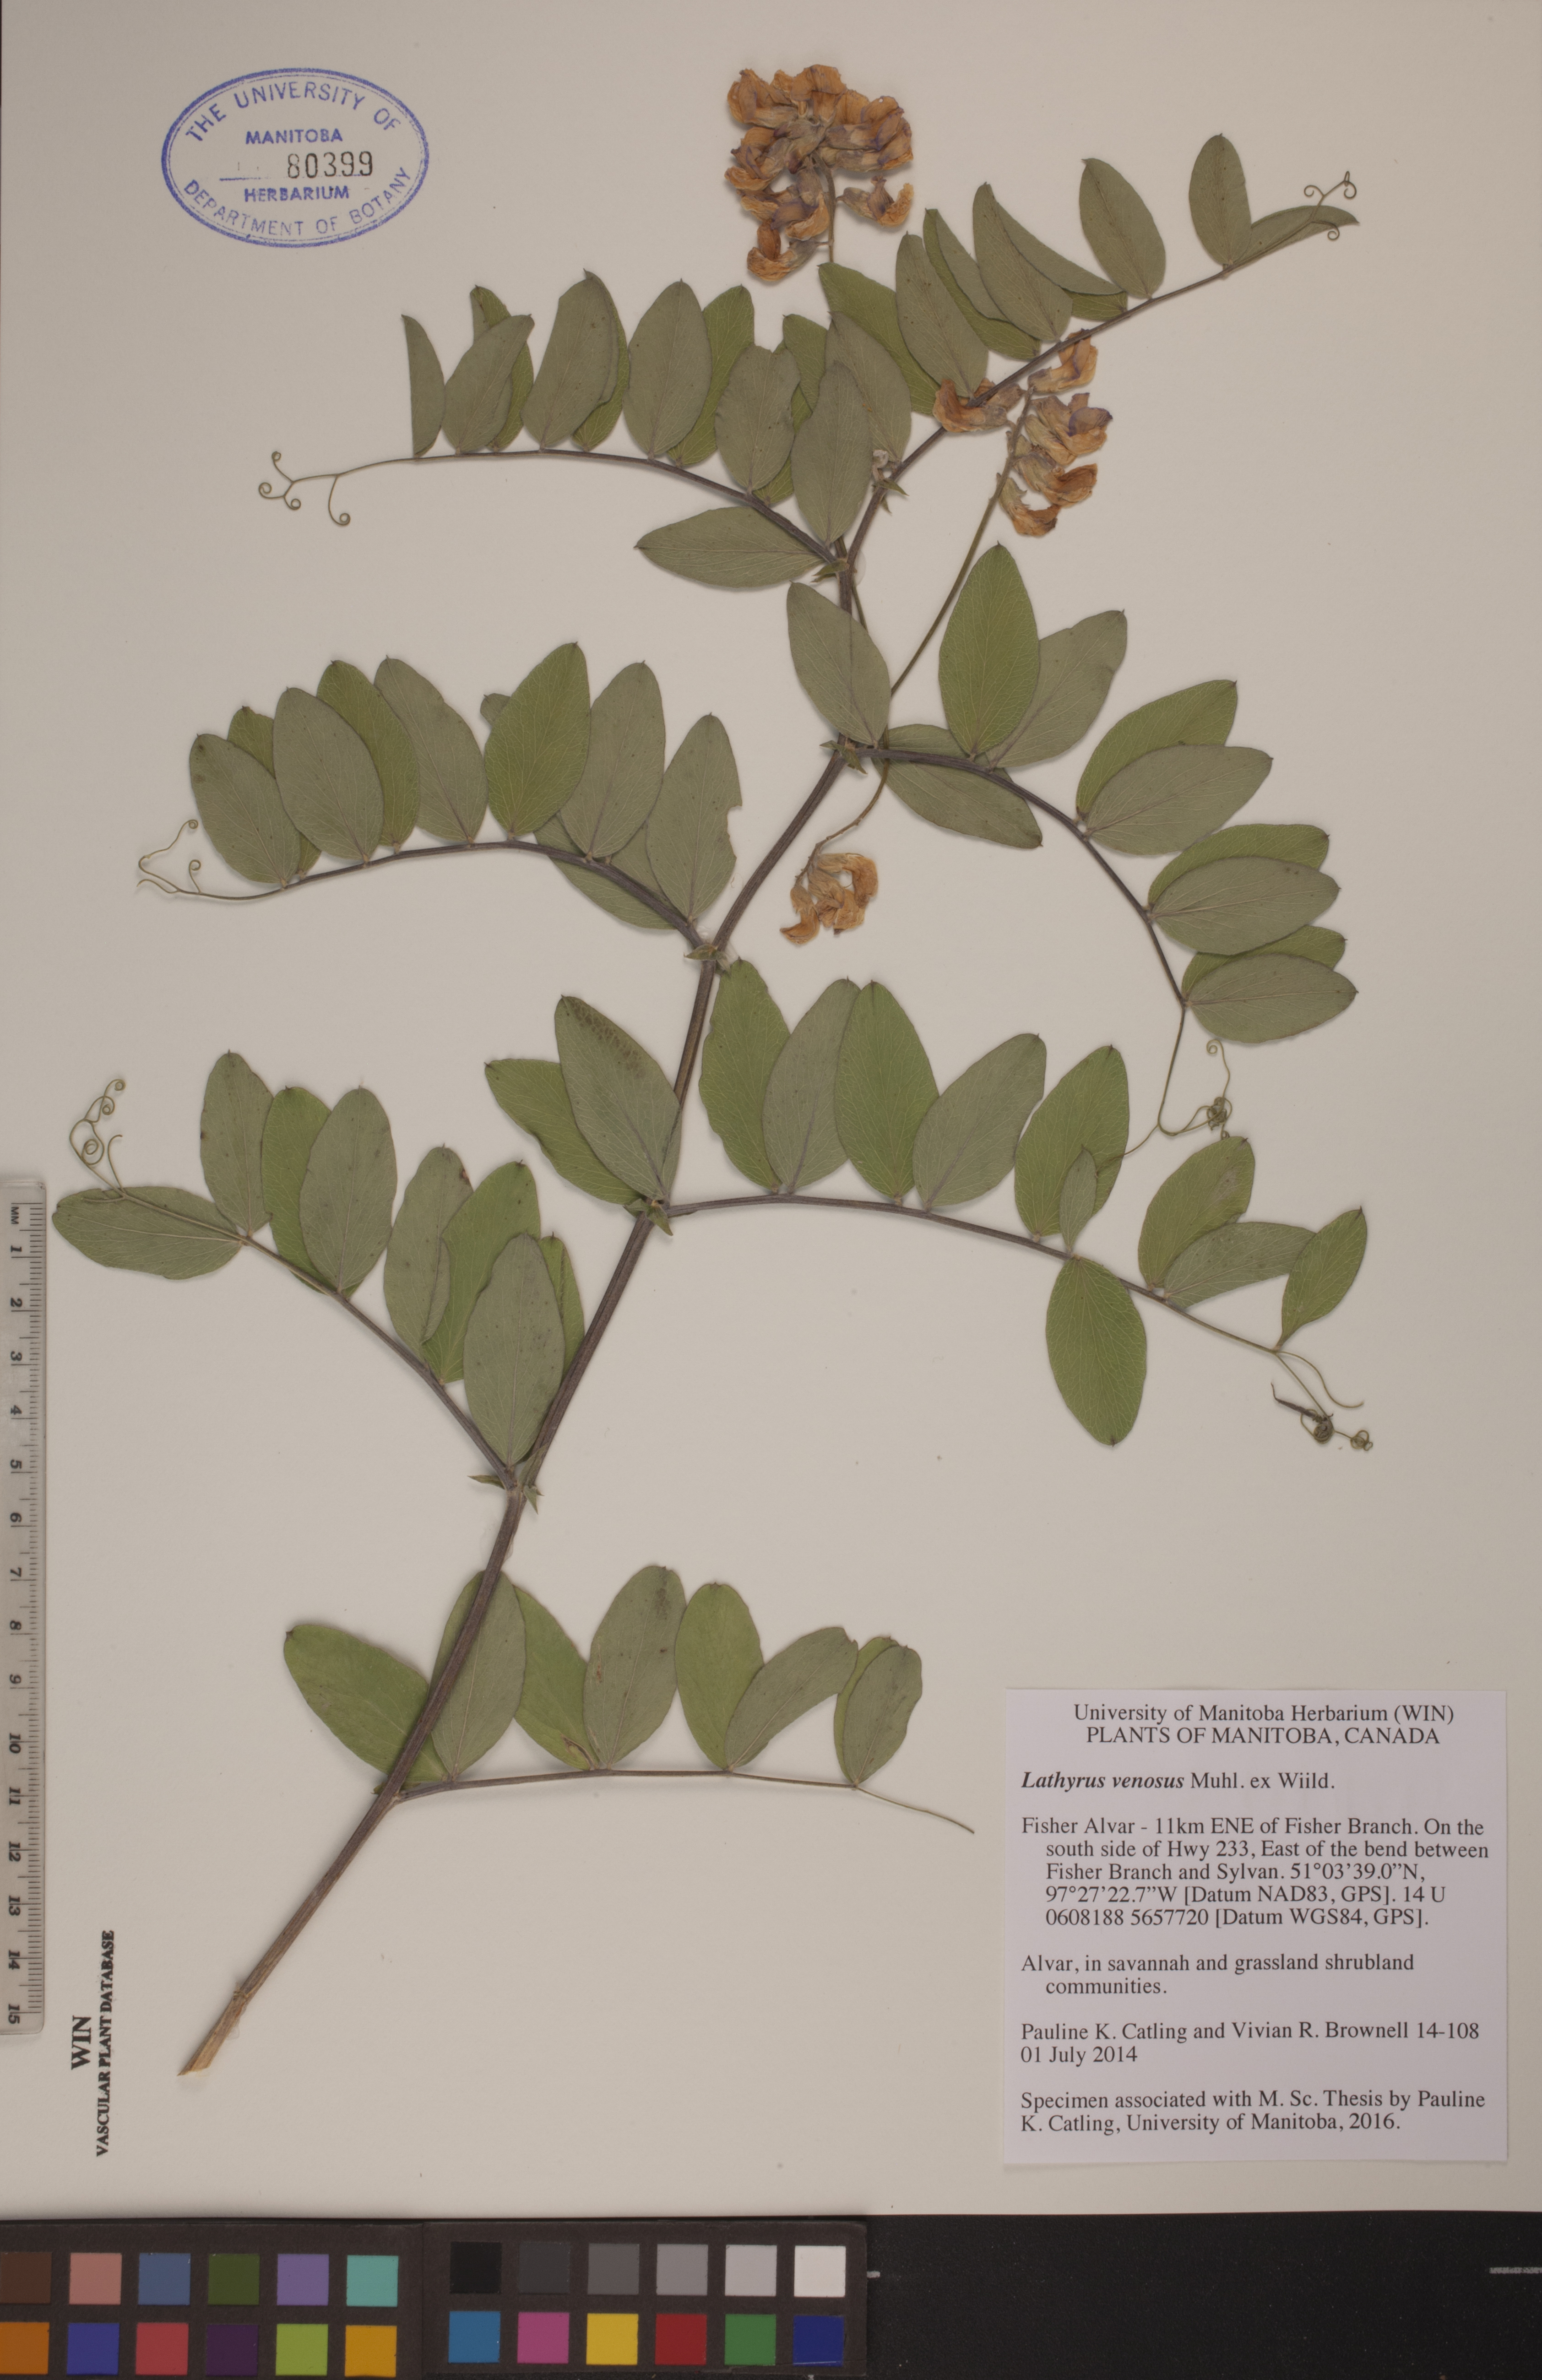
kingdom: Plantae
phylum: Tracheophyta
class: Magnoliopsida
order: Fabales
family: Fabaceae
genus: Lathyrus
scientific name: Lathyrus venosus
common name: Forest-pea
